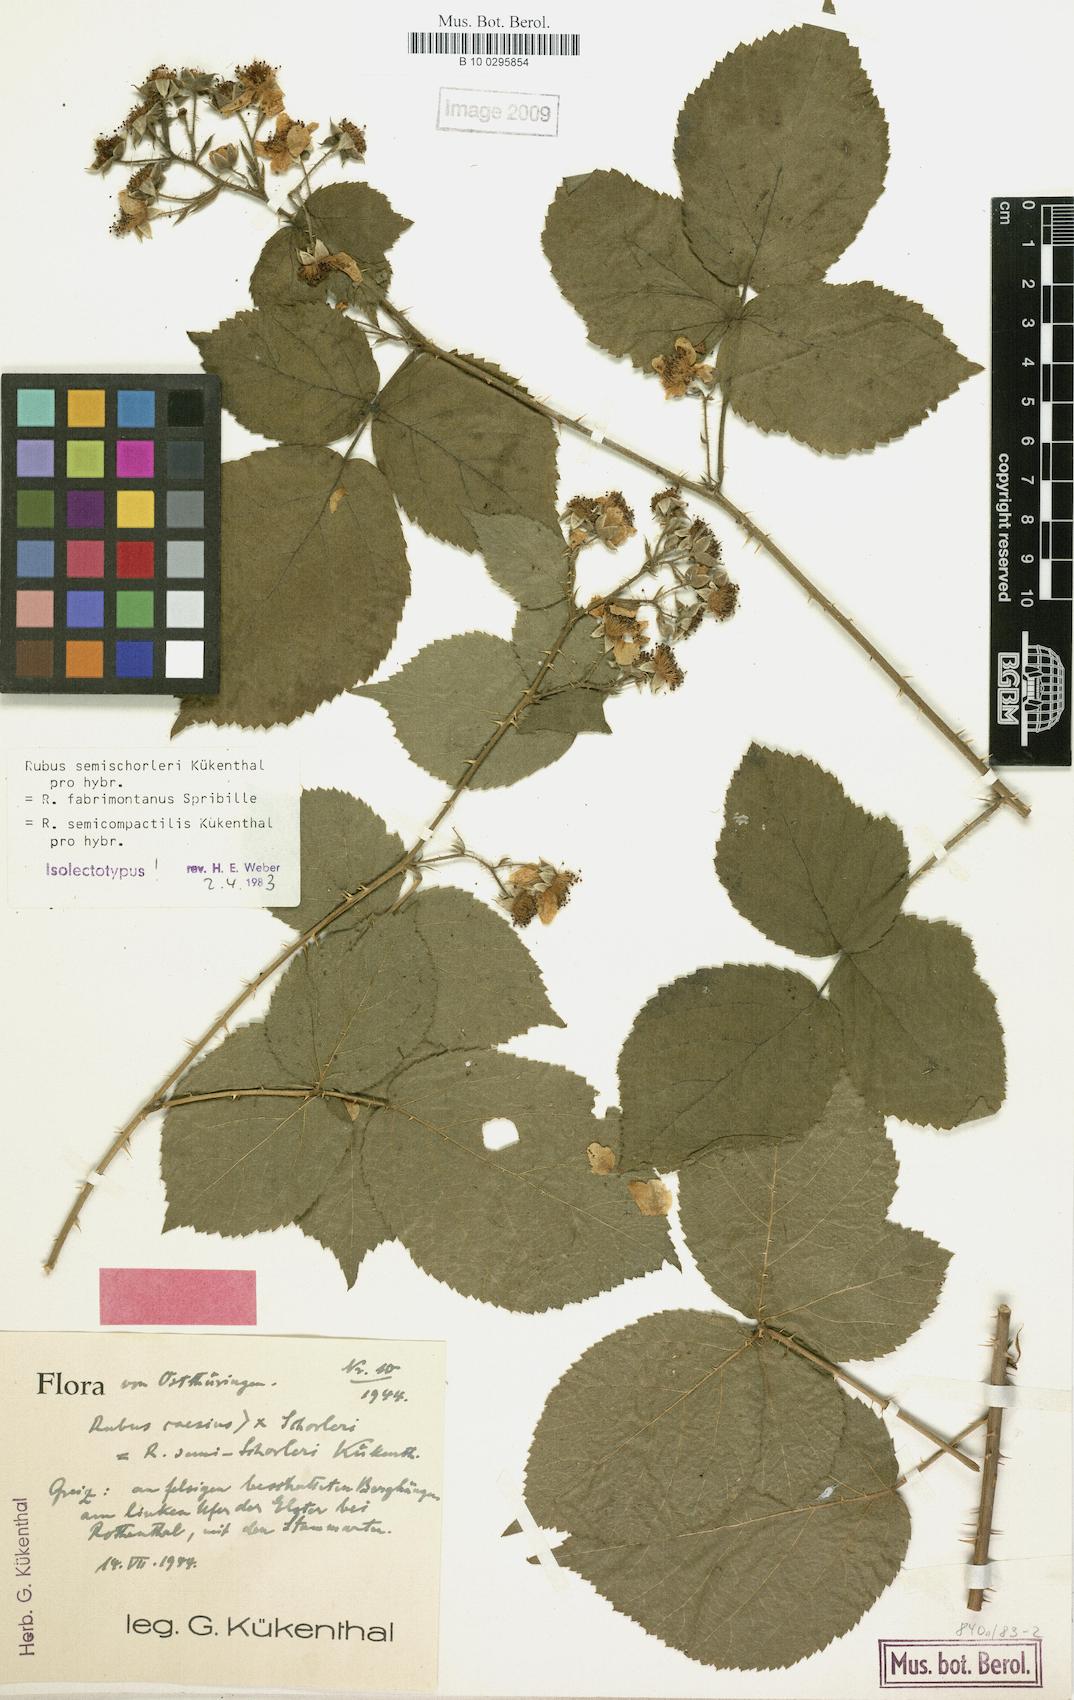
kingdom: Plantae
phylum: Tracheophyta
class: Magnoliopsida
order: Rosales
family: Rosaceae
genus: Rubus
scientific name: Rubus semischorleri
